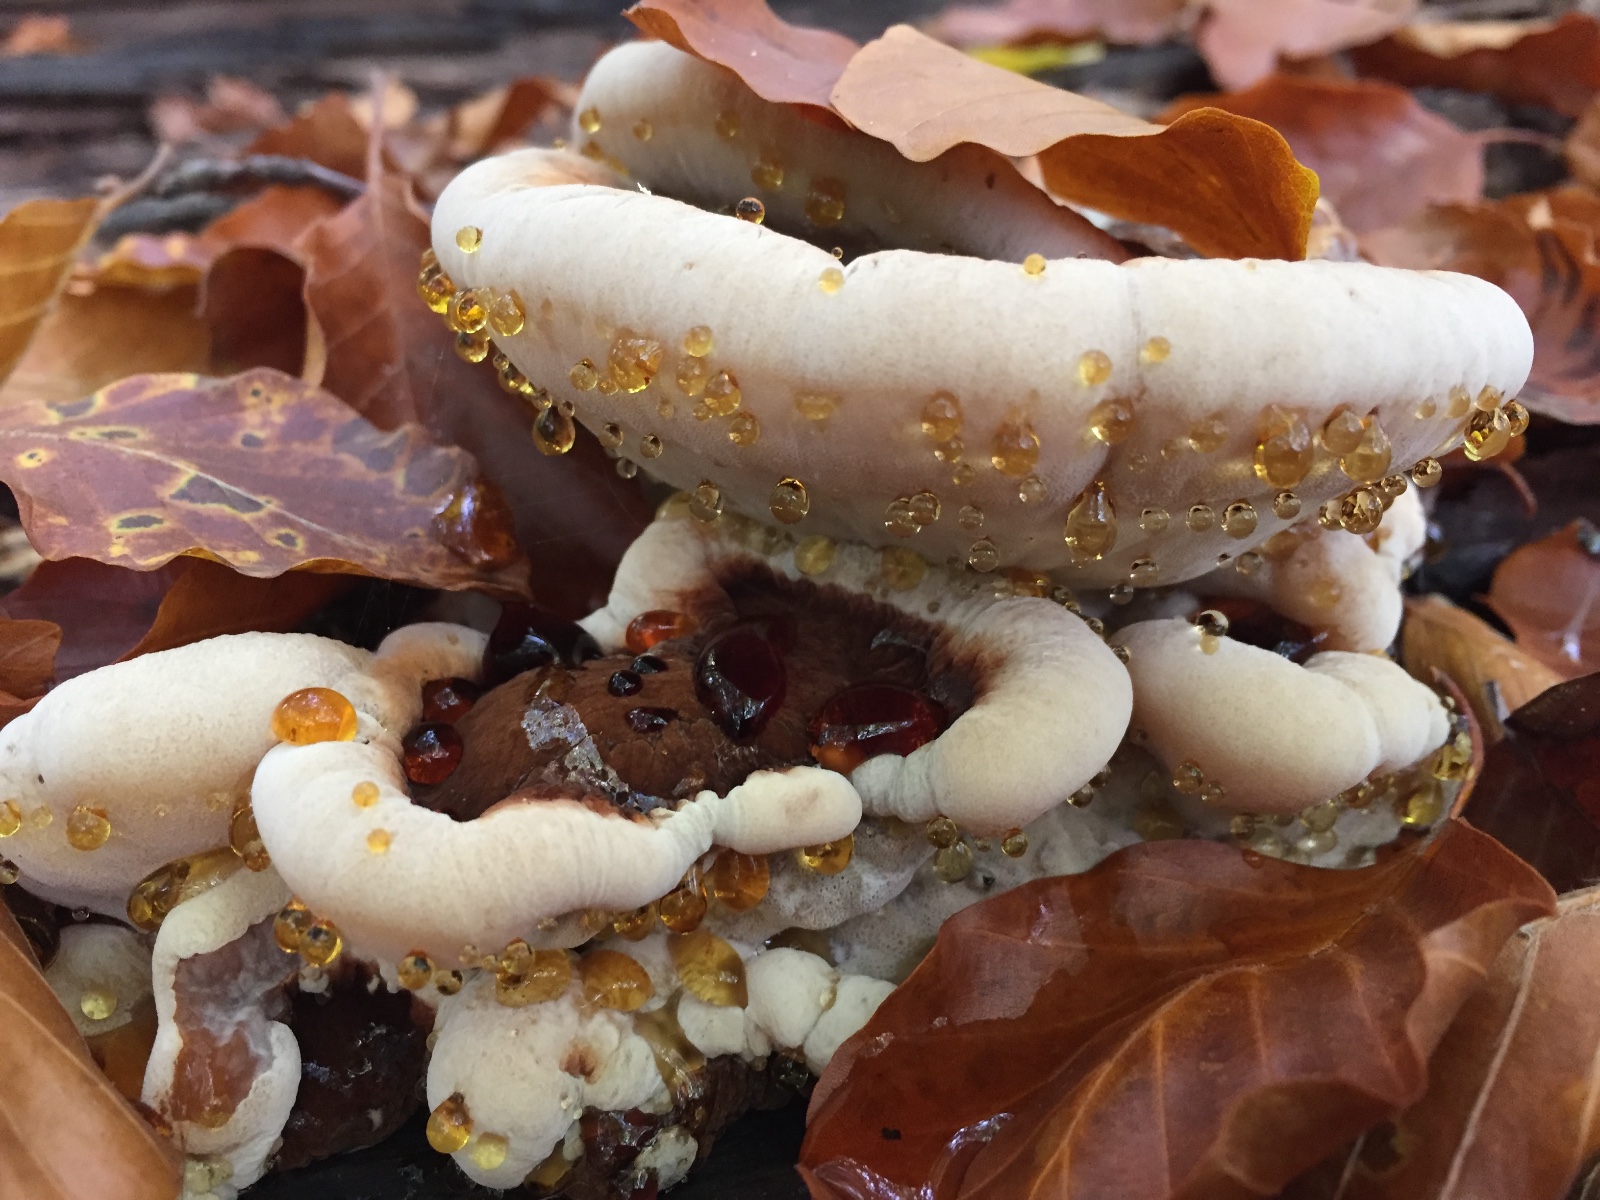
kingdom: Fungi
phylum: Basidiomycota
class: Agaricomycetes
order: Polyporales
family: Ischnodermataceae
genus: Ischnoderma
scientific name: Ischnoderma resinosum
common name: løv-tjæreporesvamp
